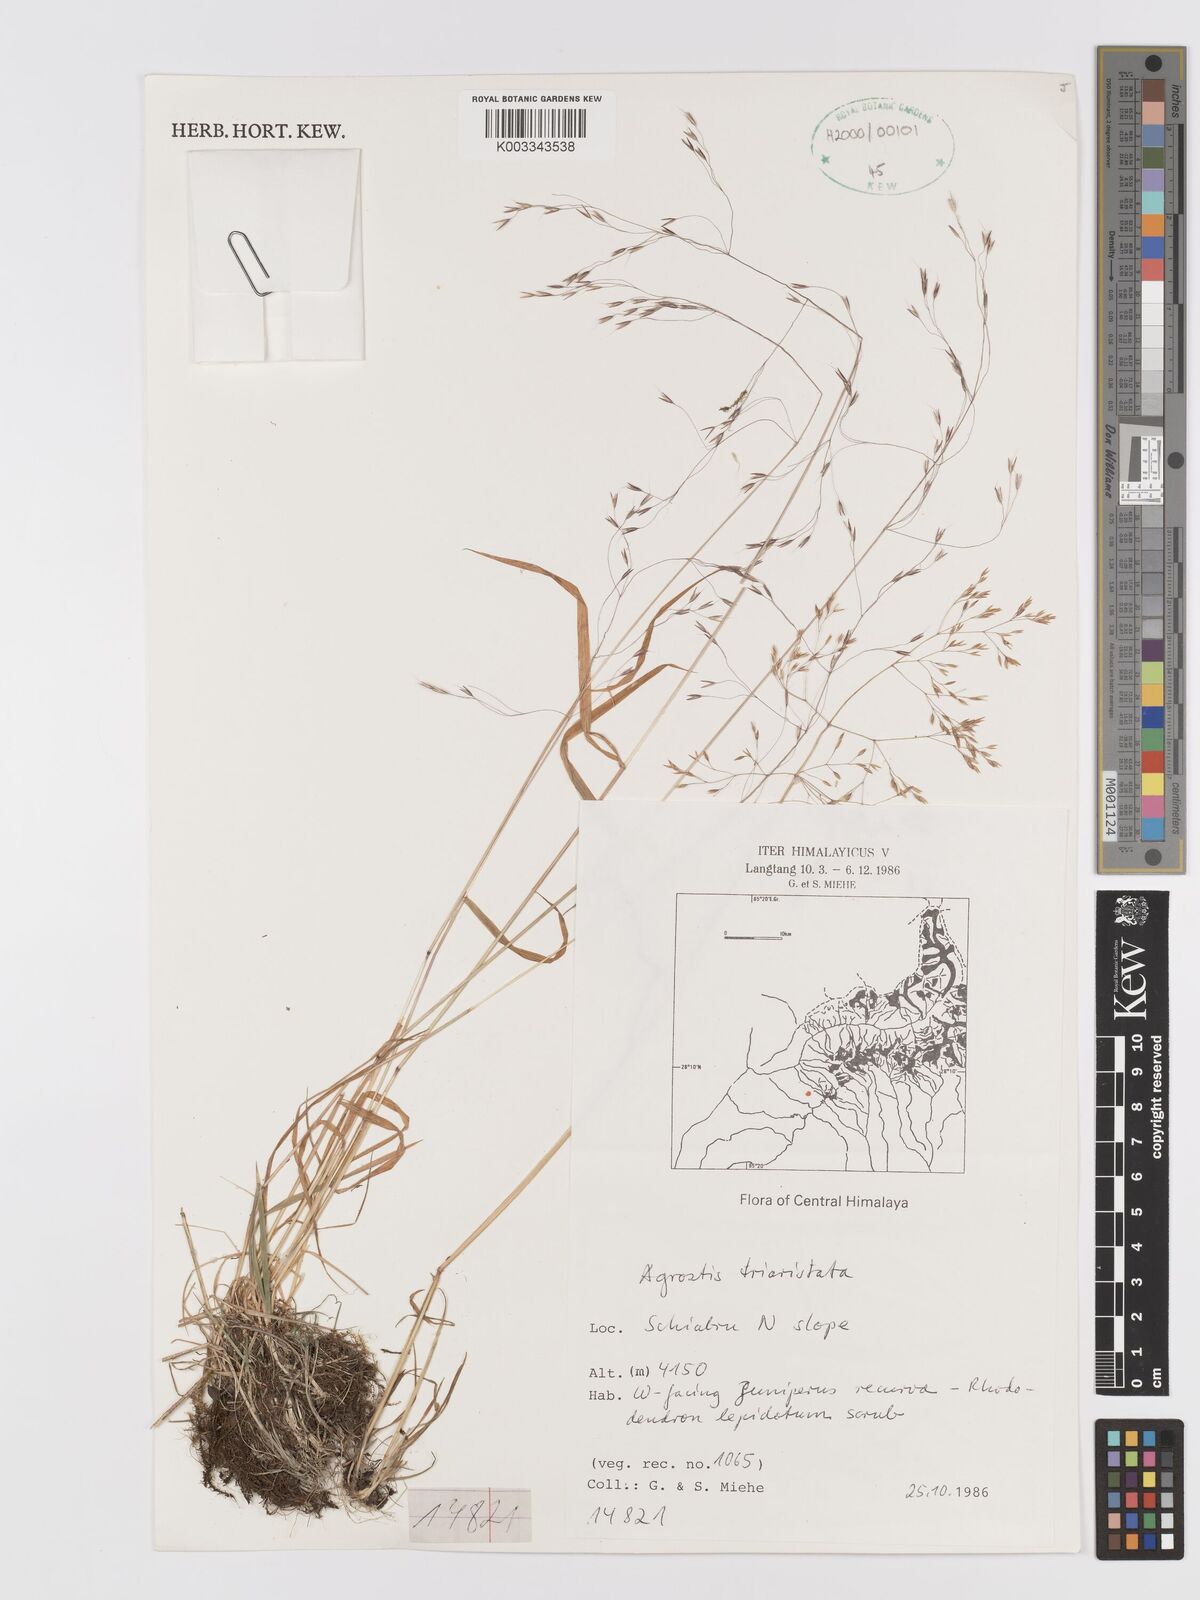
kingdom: Plantae
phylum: Tracheophyta
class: Liliopsida
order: Poales
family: Poaceae
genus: Agrostis
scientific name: Agrostis
